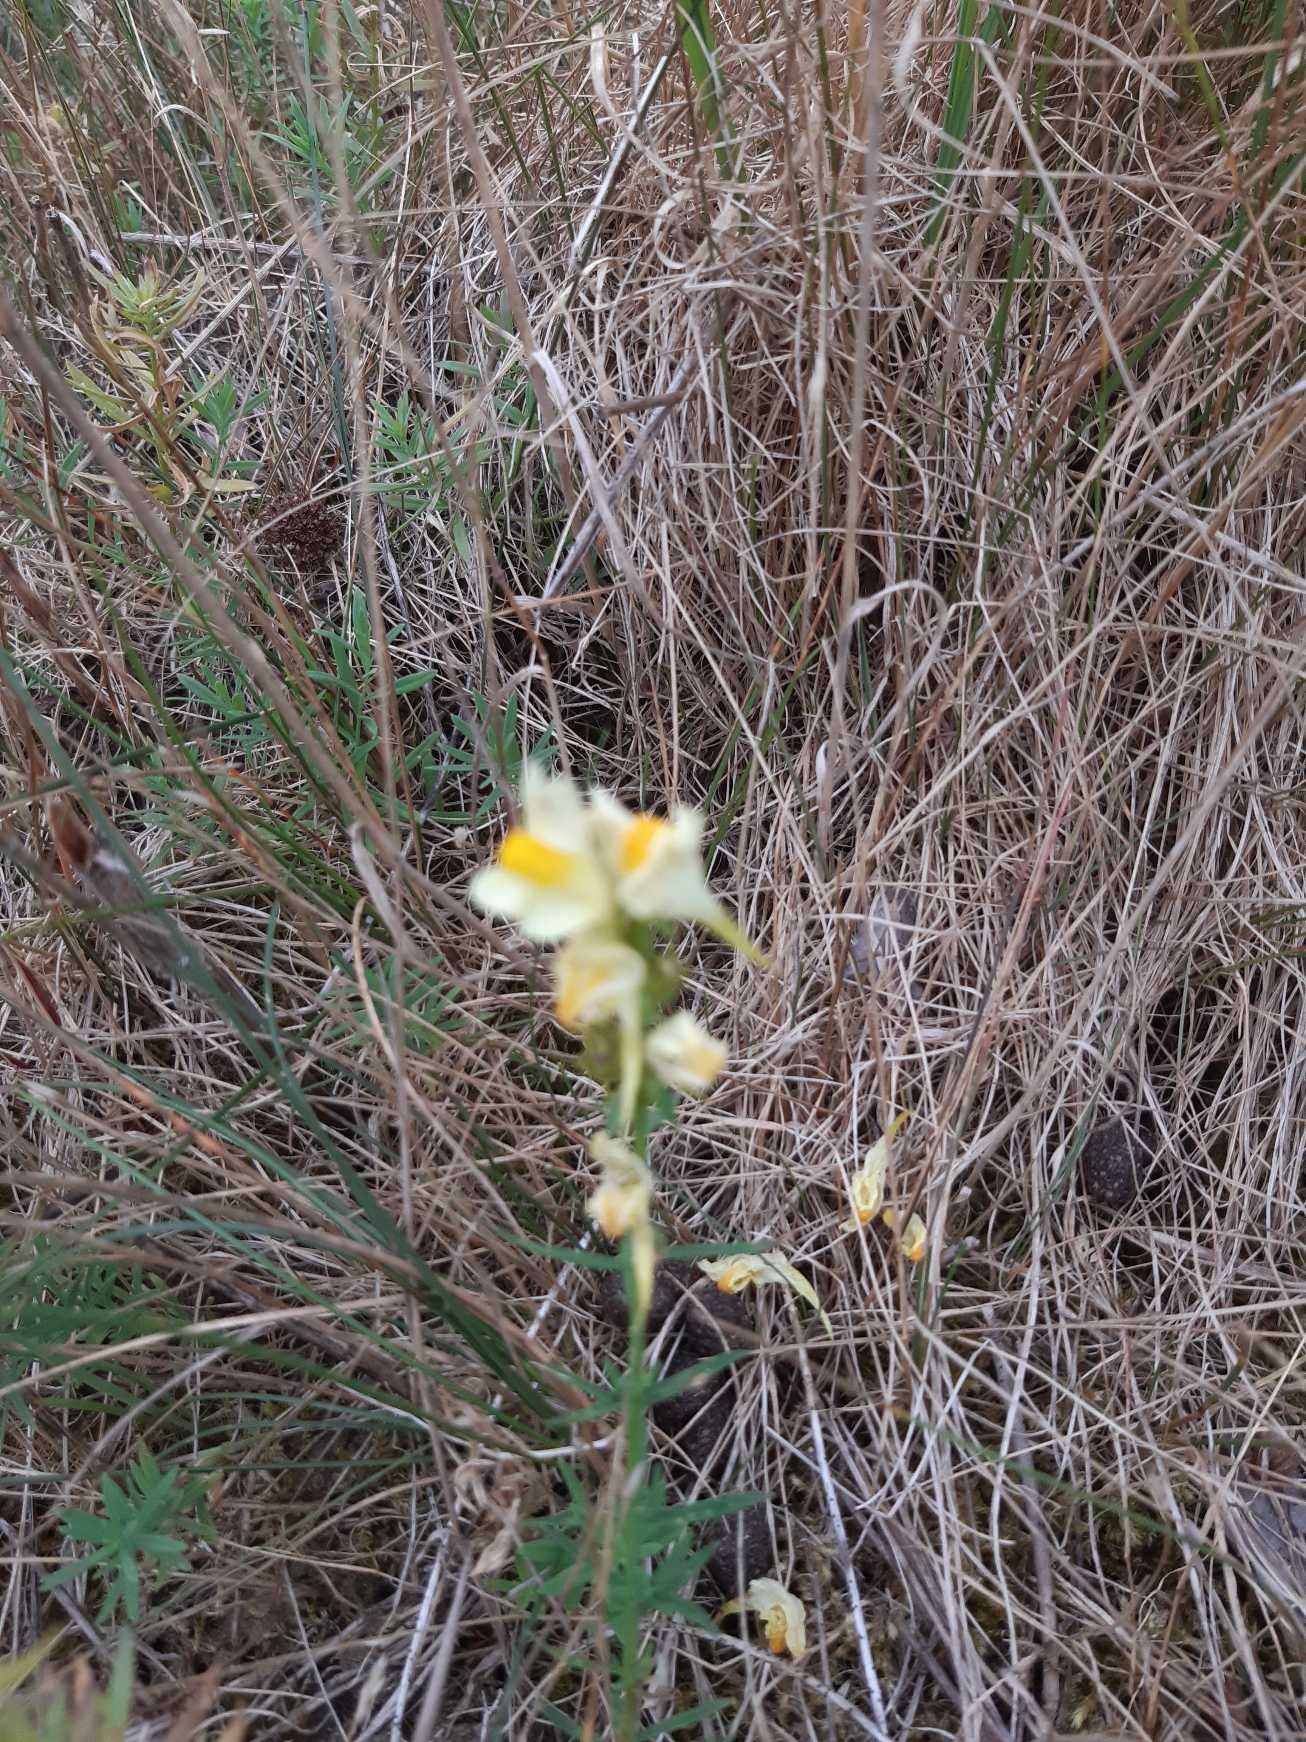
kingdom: Plantae
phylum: Tracheophyta
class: Magnoliopsida
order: Lamiales
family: Plantaginaceae
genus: Linaria
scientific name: Linaria vulgaris
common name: Almindelig torskemund
